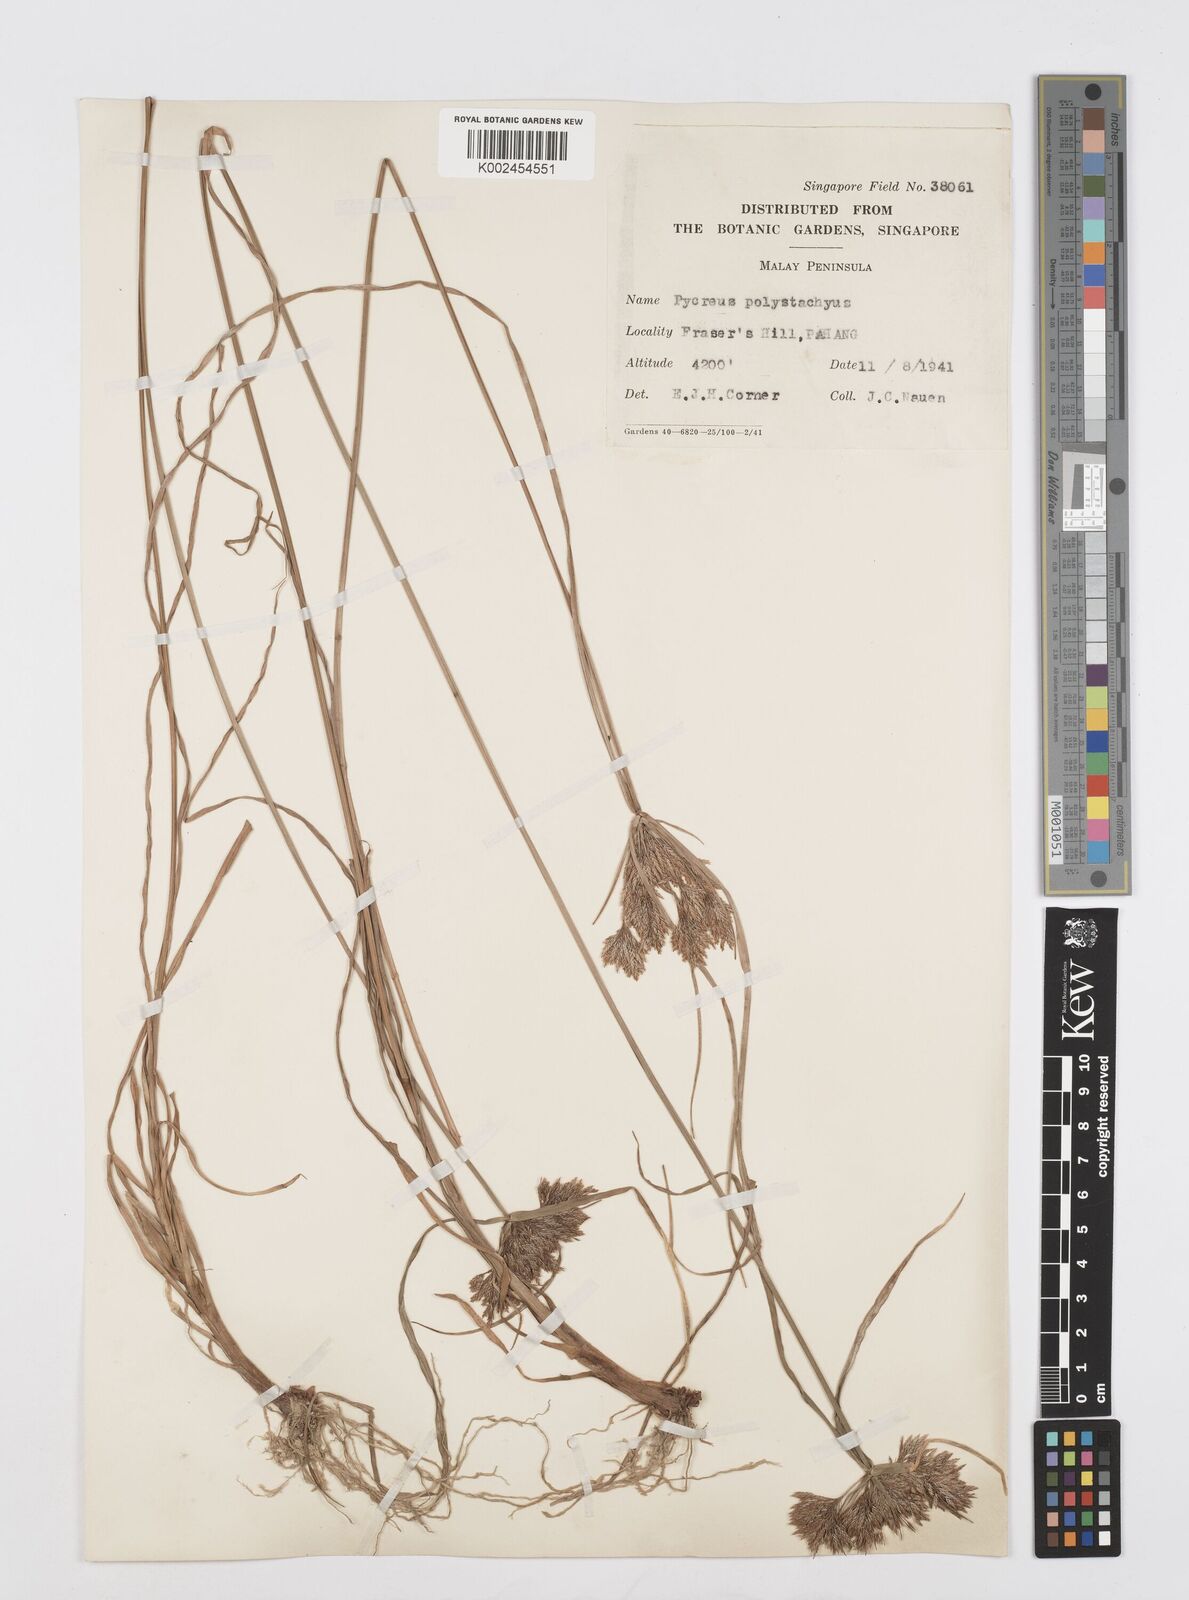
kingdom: Plantae
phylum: Tracheophyta
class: Liliopsida
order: Poales
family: Cyperaceae
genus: Cyperus
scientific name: Cyperus polystachyos
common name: Bunchy flat sedge
